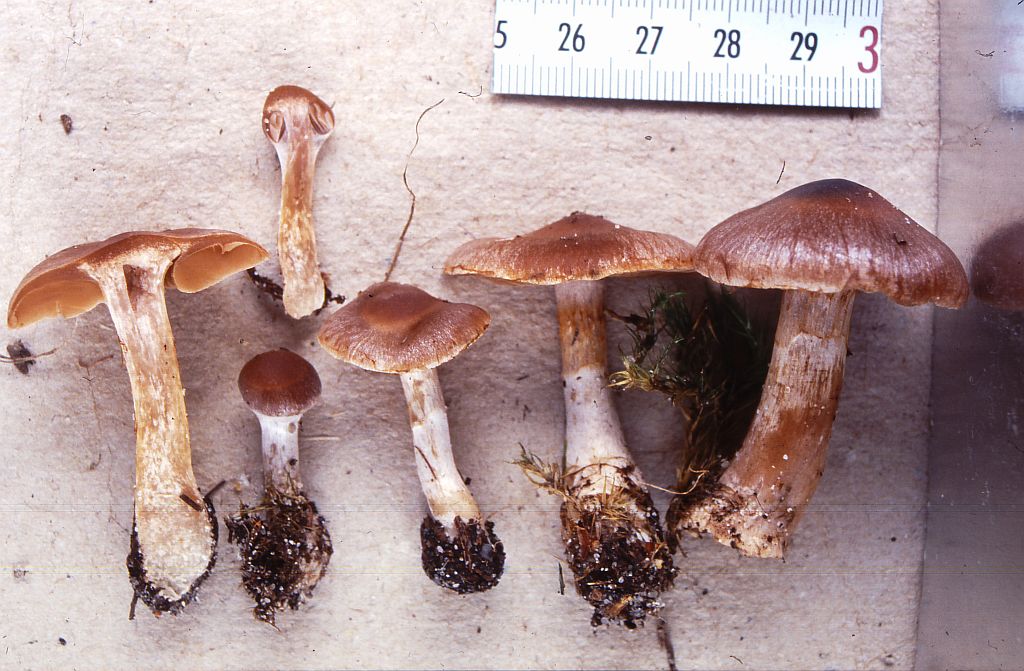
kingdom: Fungi
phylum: Basidiomycota
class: Agaricomycetes
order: Agaricales
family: Cortinariaceae
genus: Cortinarius
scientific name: Cortinarius kauffmanianus
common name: plantage-slørhat
